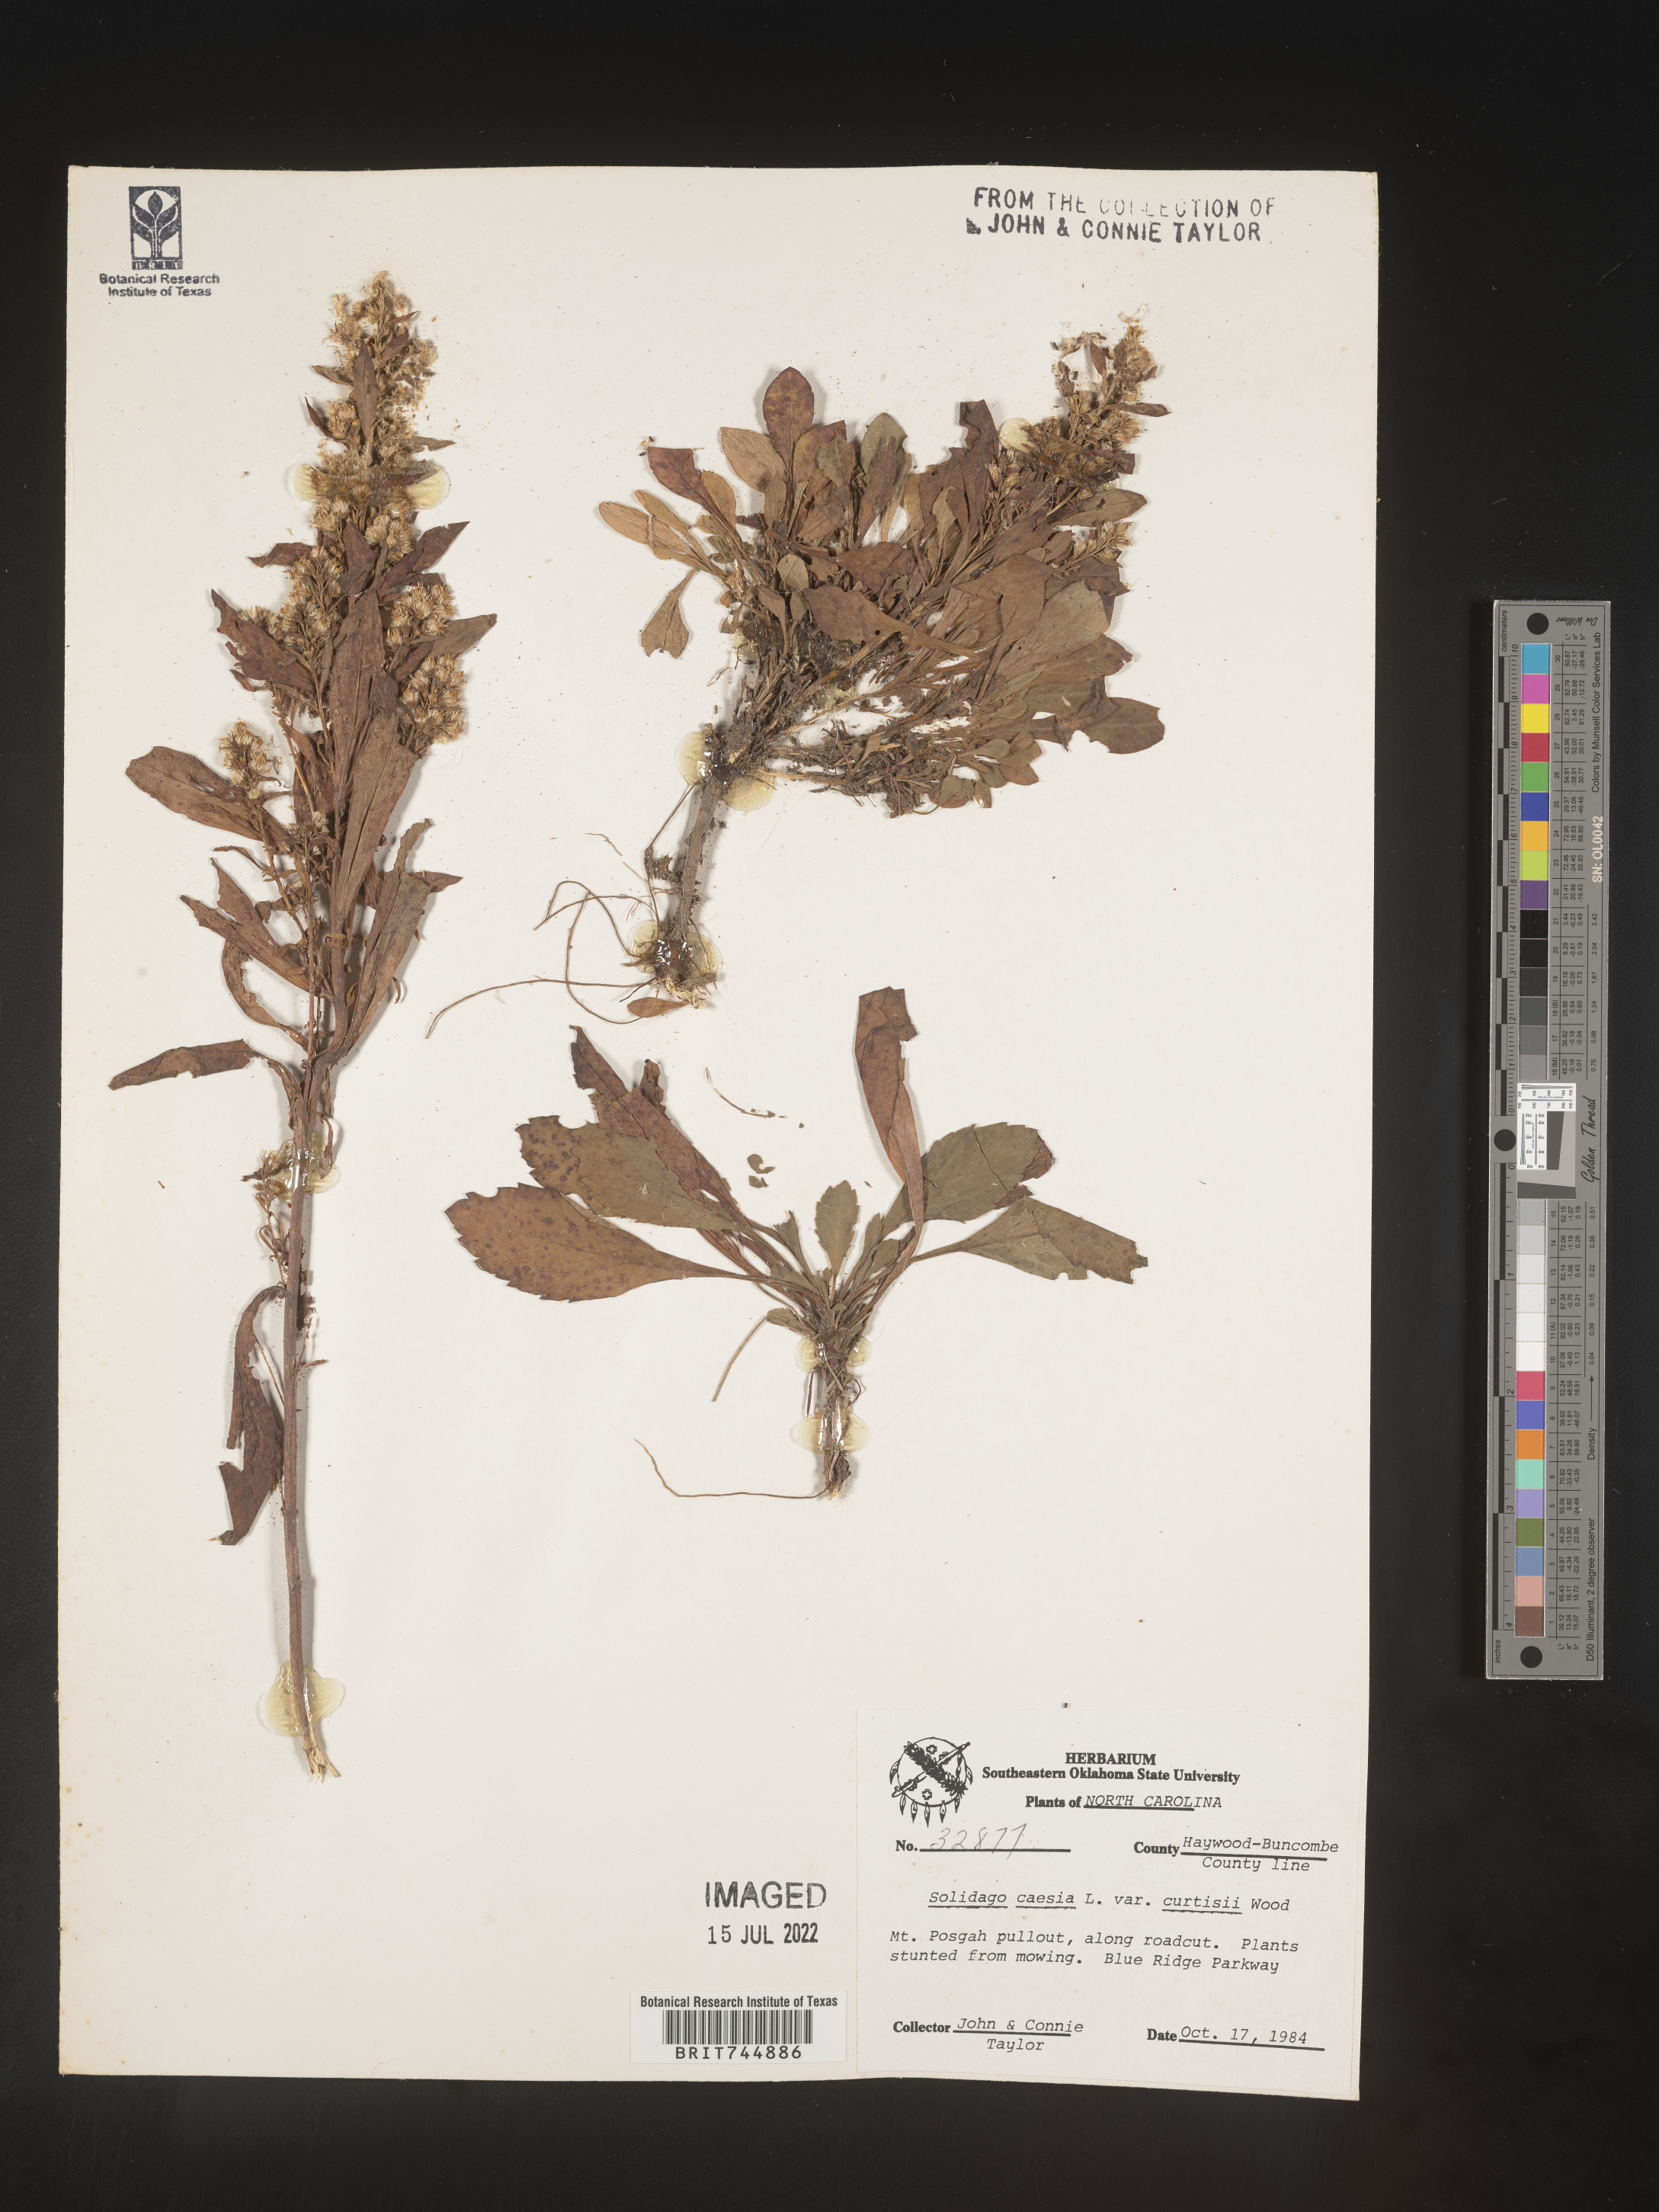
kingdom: Plantae
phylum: Tracheophyta
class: Magnoliopsida
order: Asterales
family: Asteraceae
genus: Solidago
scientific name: Solidago curtisii
